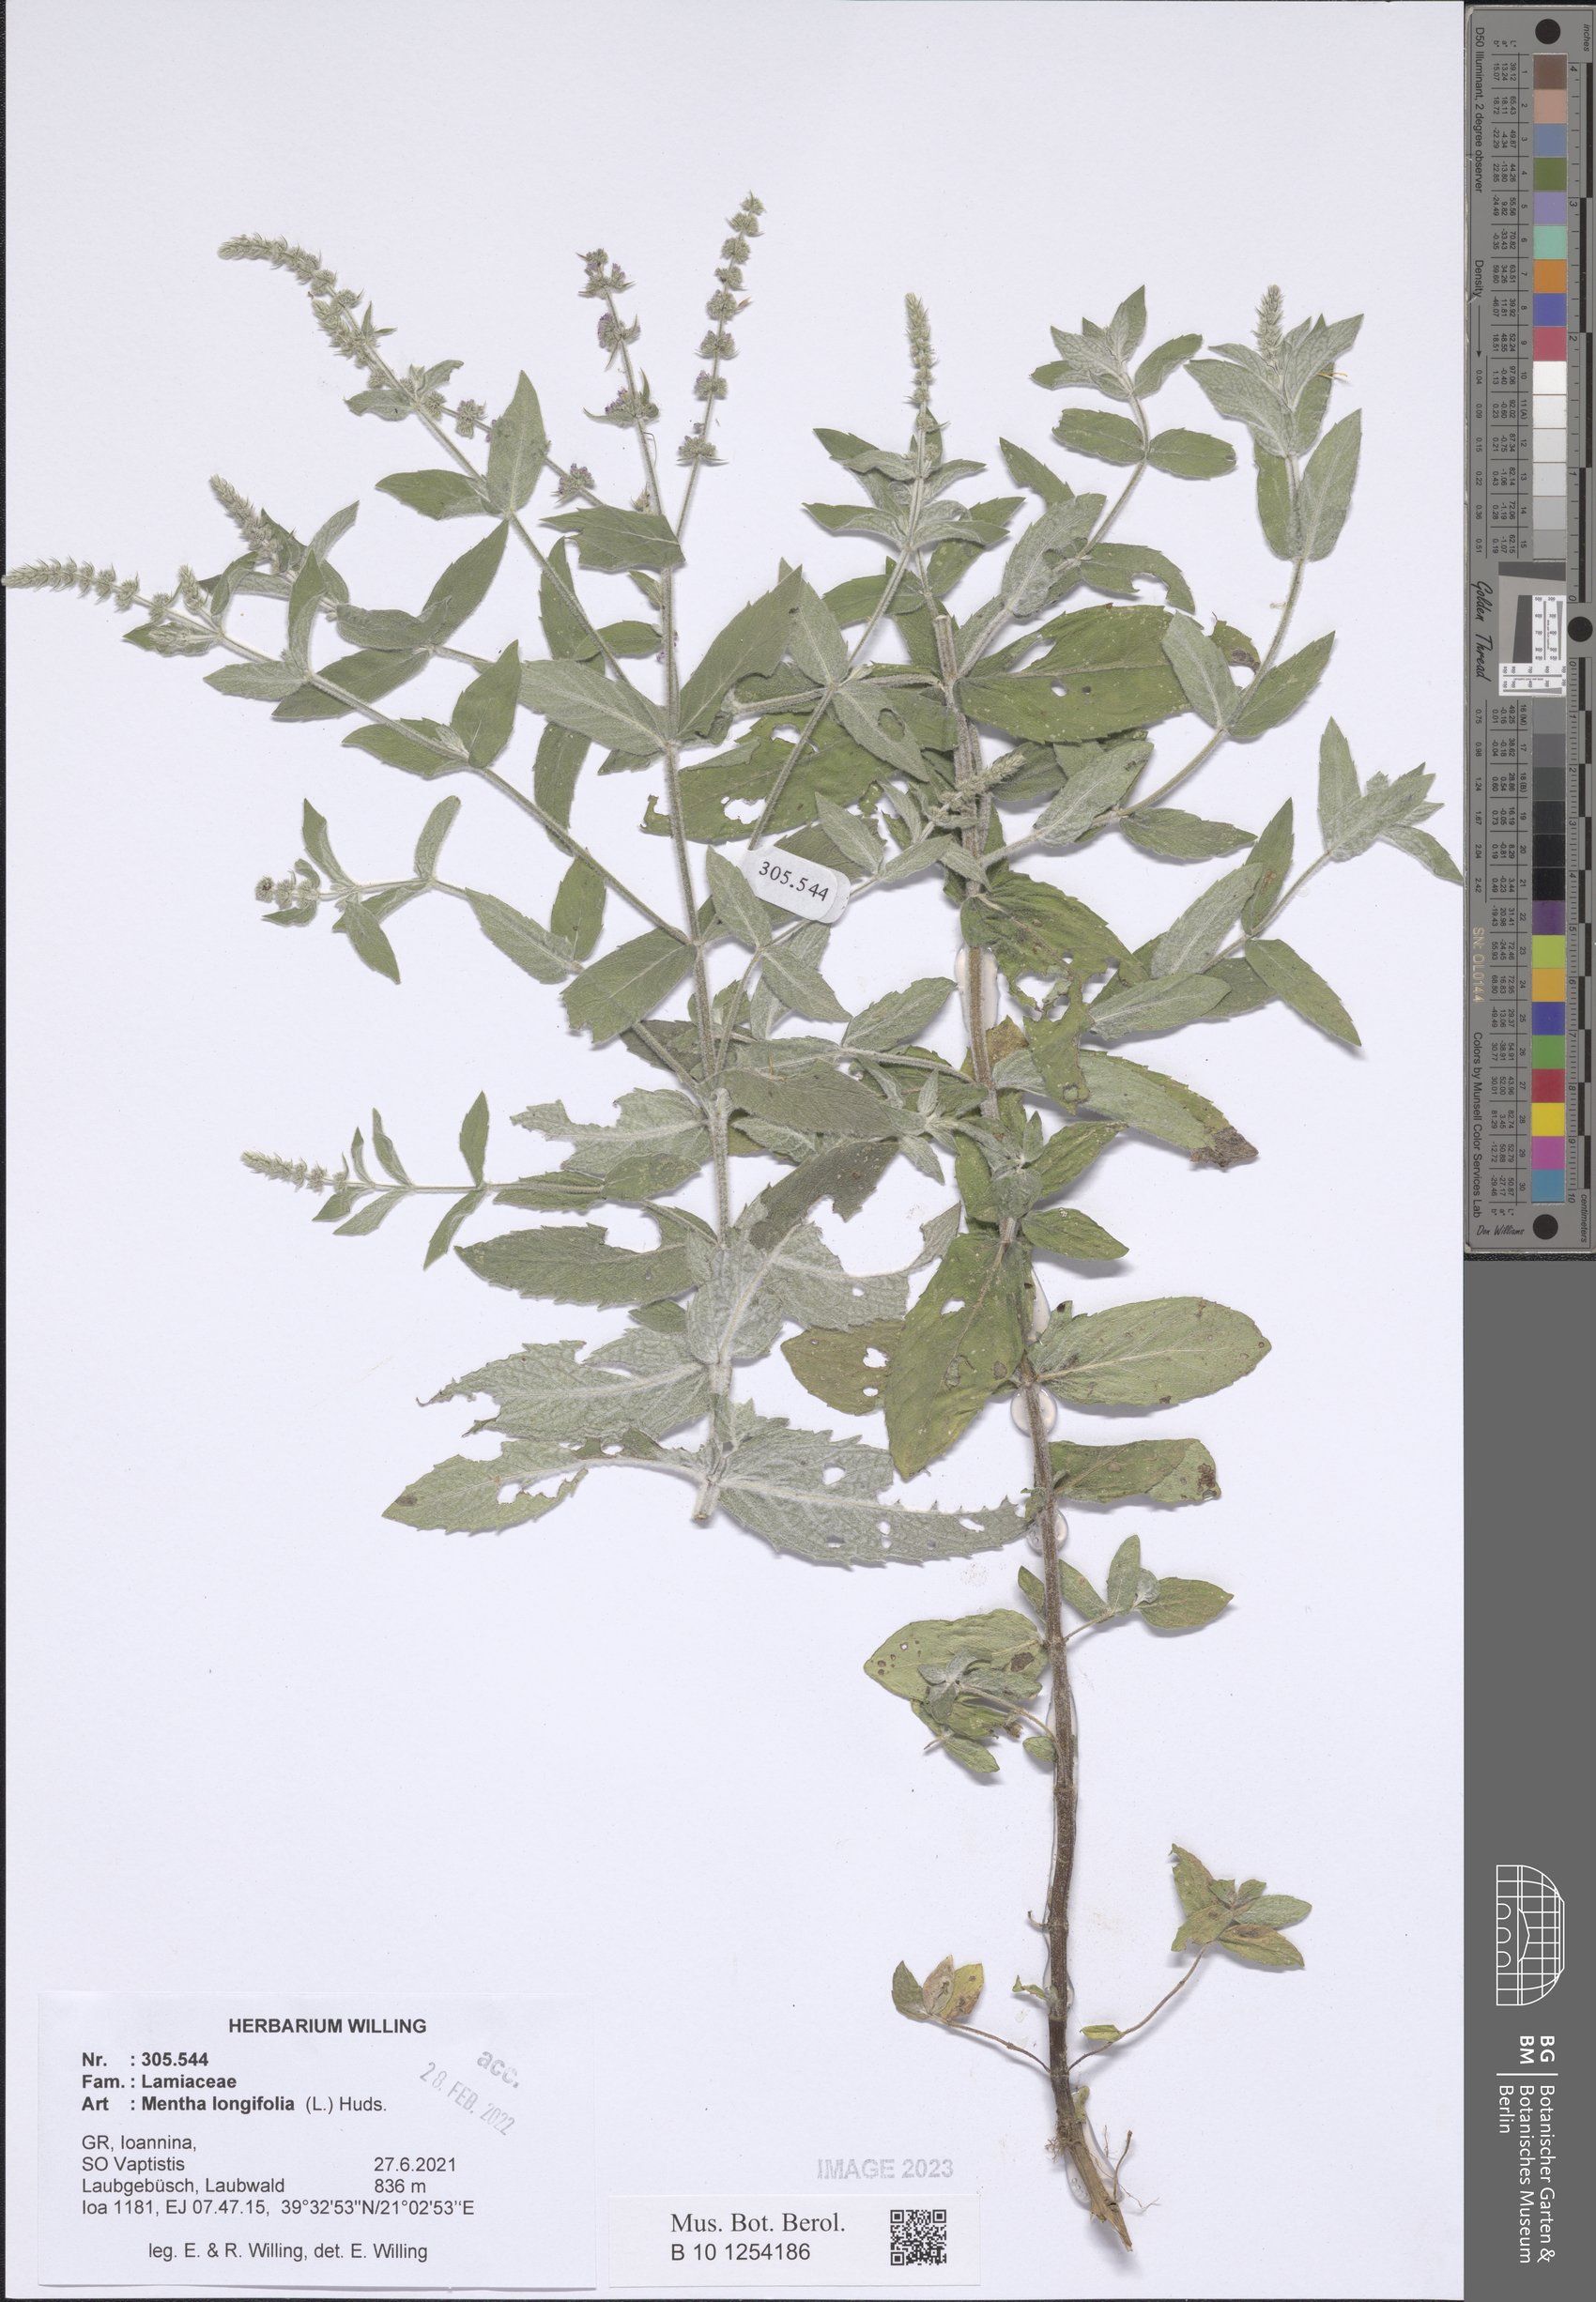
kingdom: Plantae
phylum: Tracheophyta
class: Magnoliopsida
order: Lamiales
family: Lamiaceae
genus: Mentha
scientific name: Mentha longifolia
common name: Horse mint
